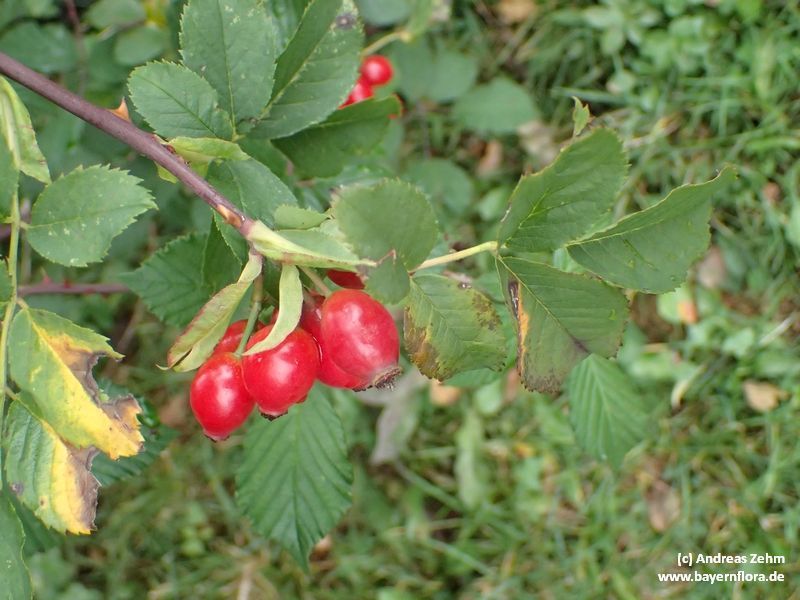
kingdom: Plantae
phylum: Tracheophyta
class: Magnoliopsida
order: Rosales
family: Rosaceae
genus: Rosa
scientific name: Rosa subcanina
